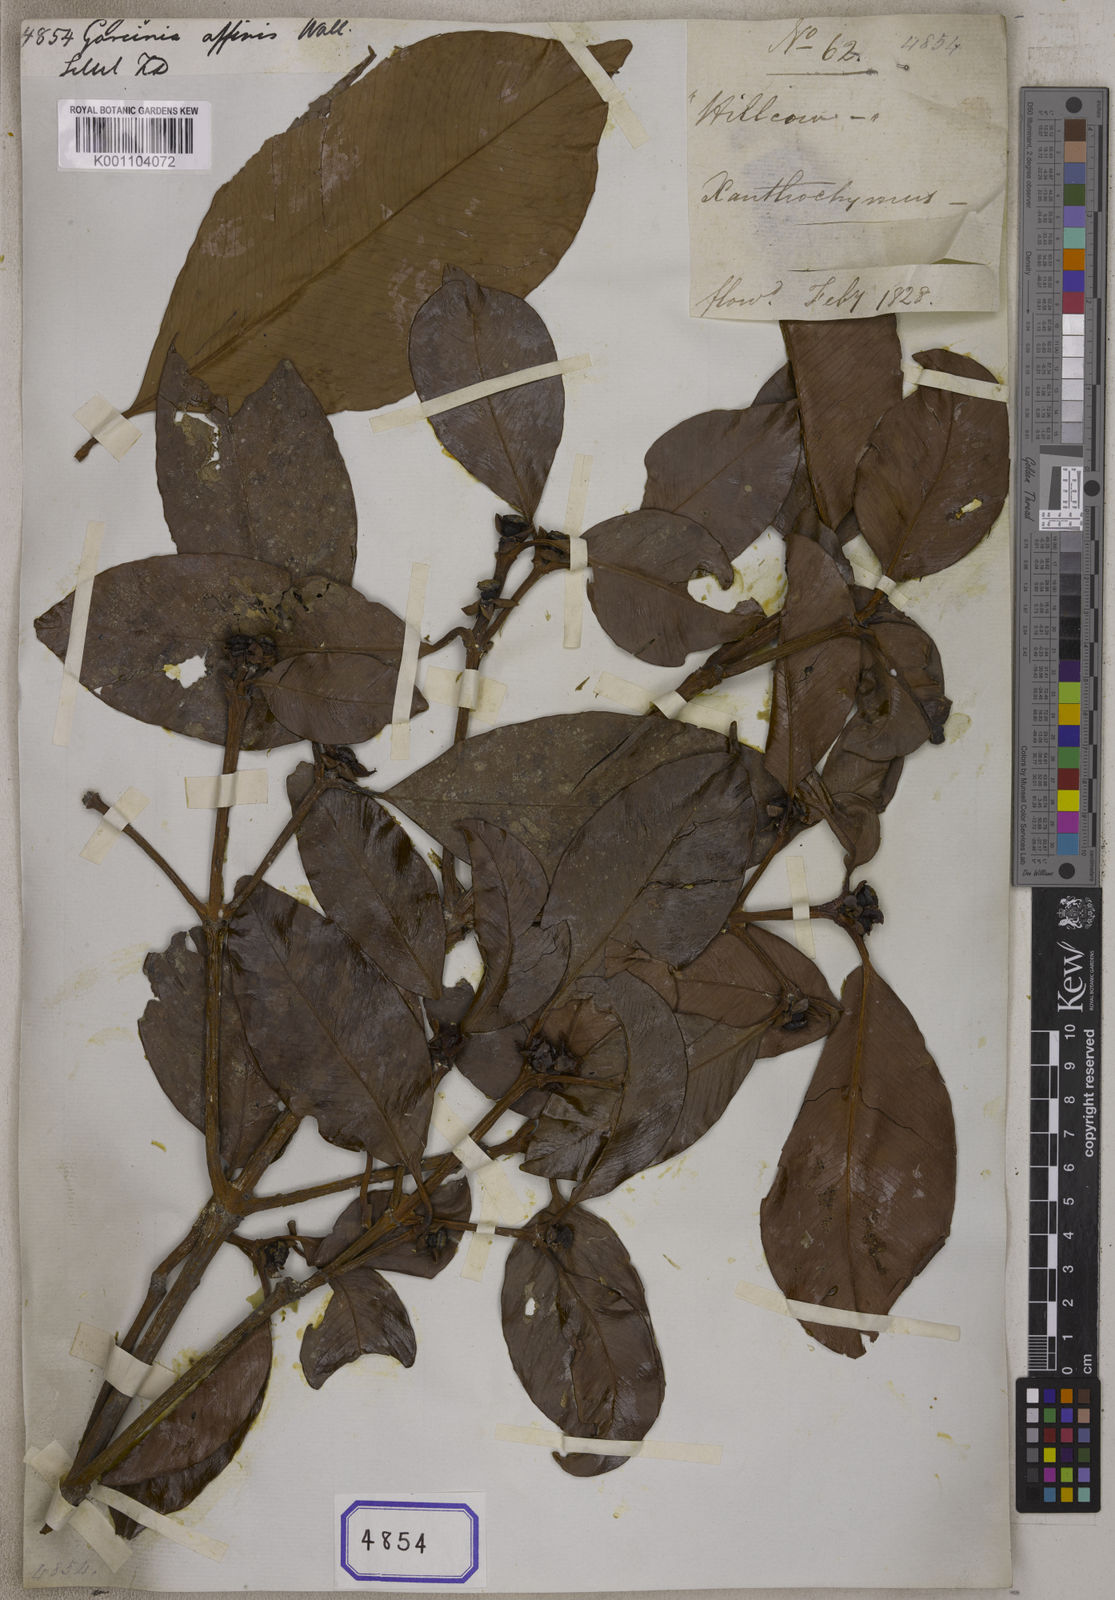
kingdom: Plantae
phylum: Tracheophyta
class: Magnoliopsida
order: Malpighiales
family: Clusiaceae
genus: Garcinia
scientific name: Garcinia
